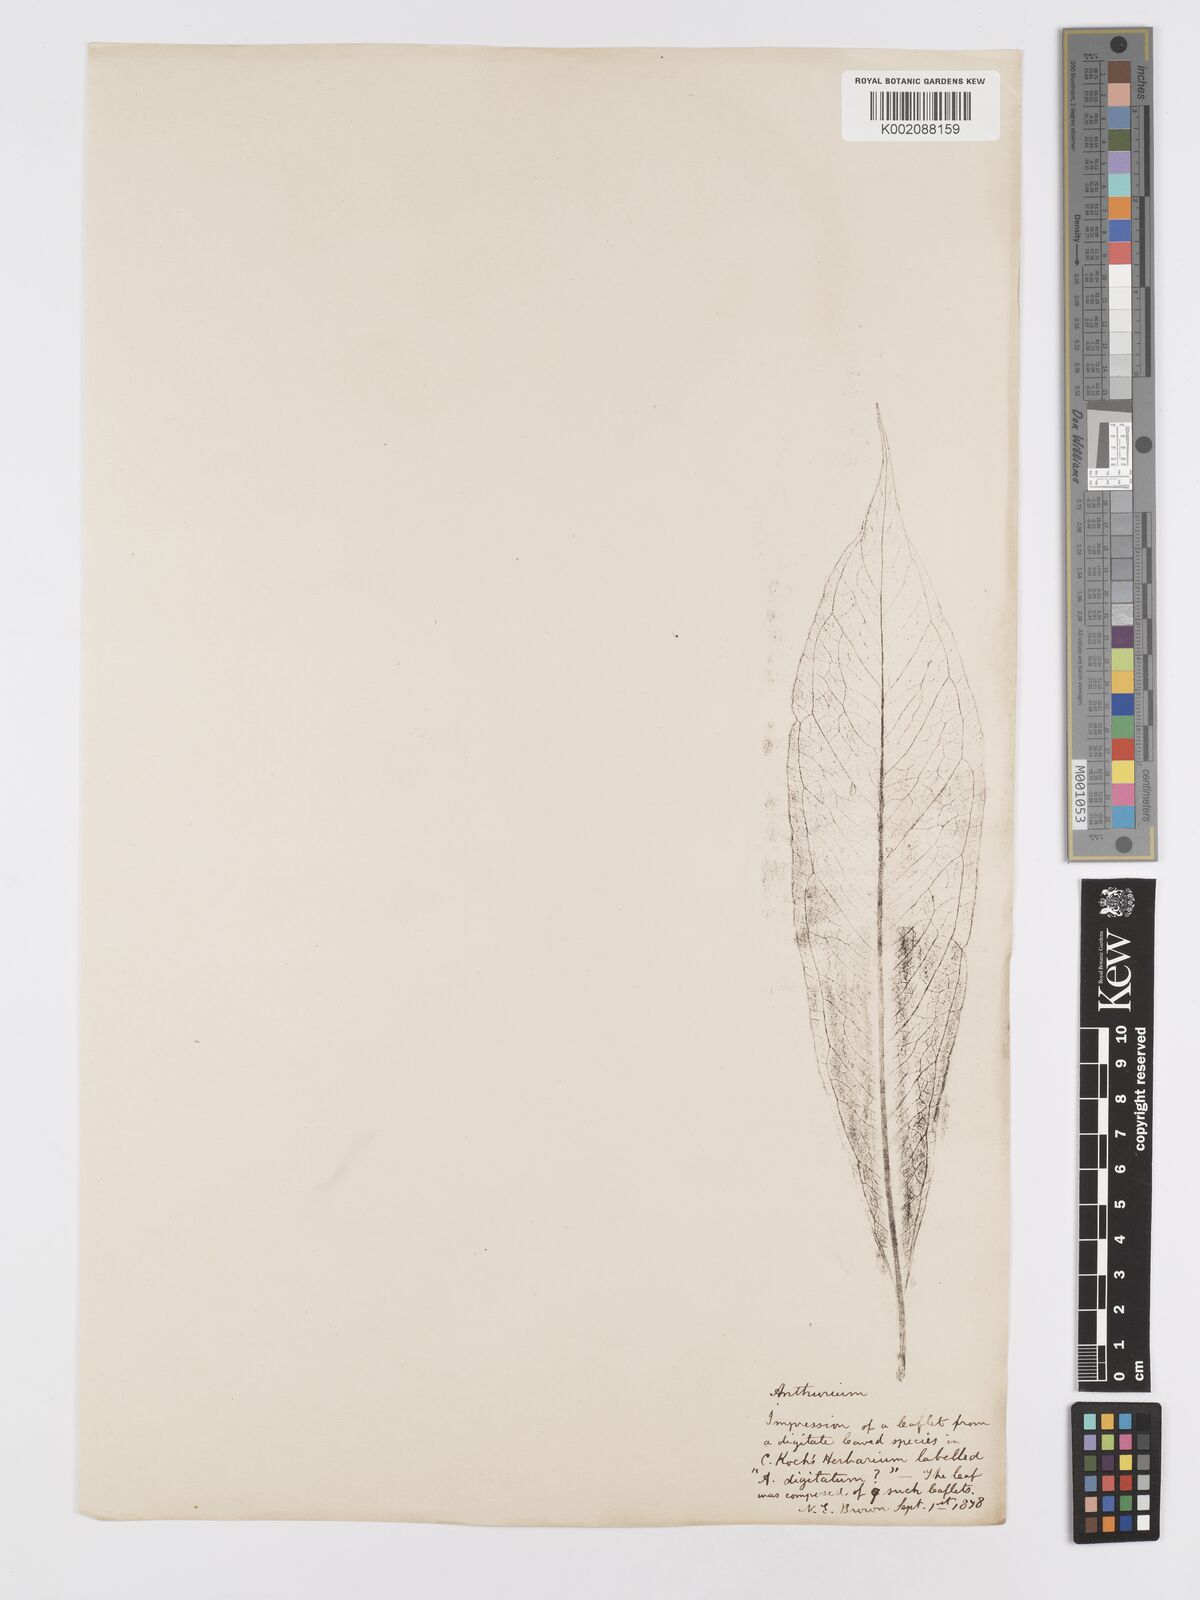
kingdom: Plantae
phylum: Tracheophyta
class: Liliopsida
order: Alismatales
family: Araceae
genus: Anthurium
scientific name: Anthurium
